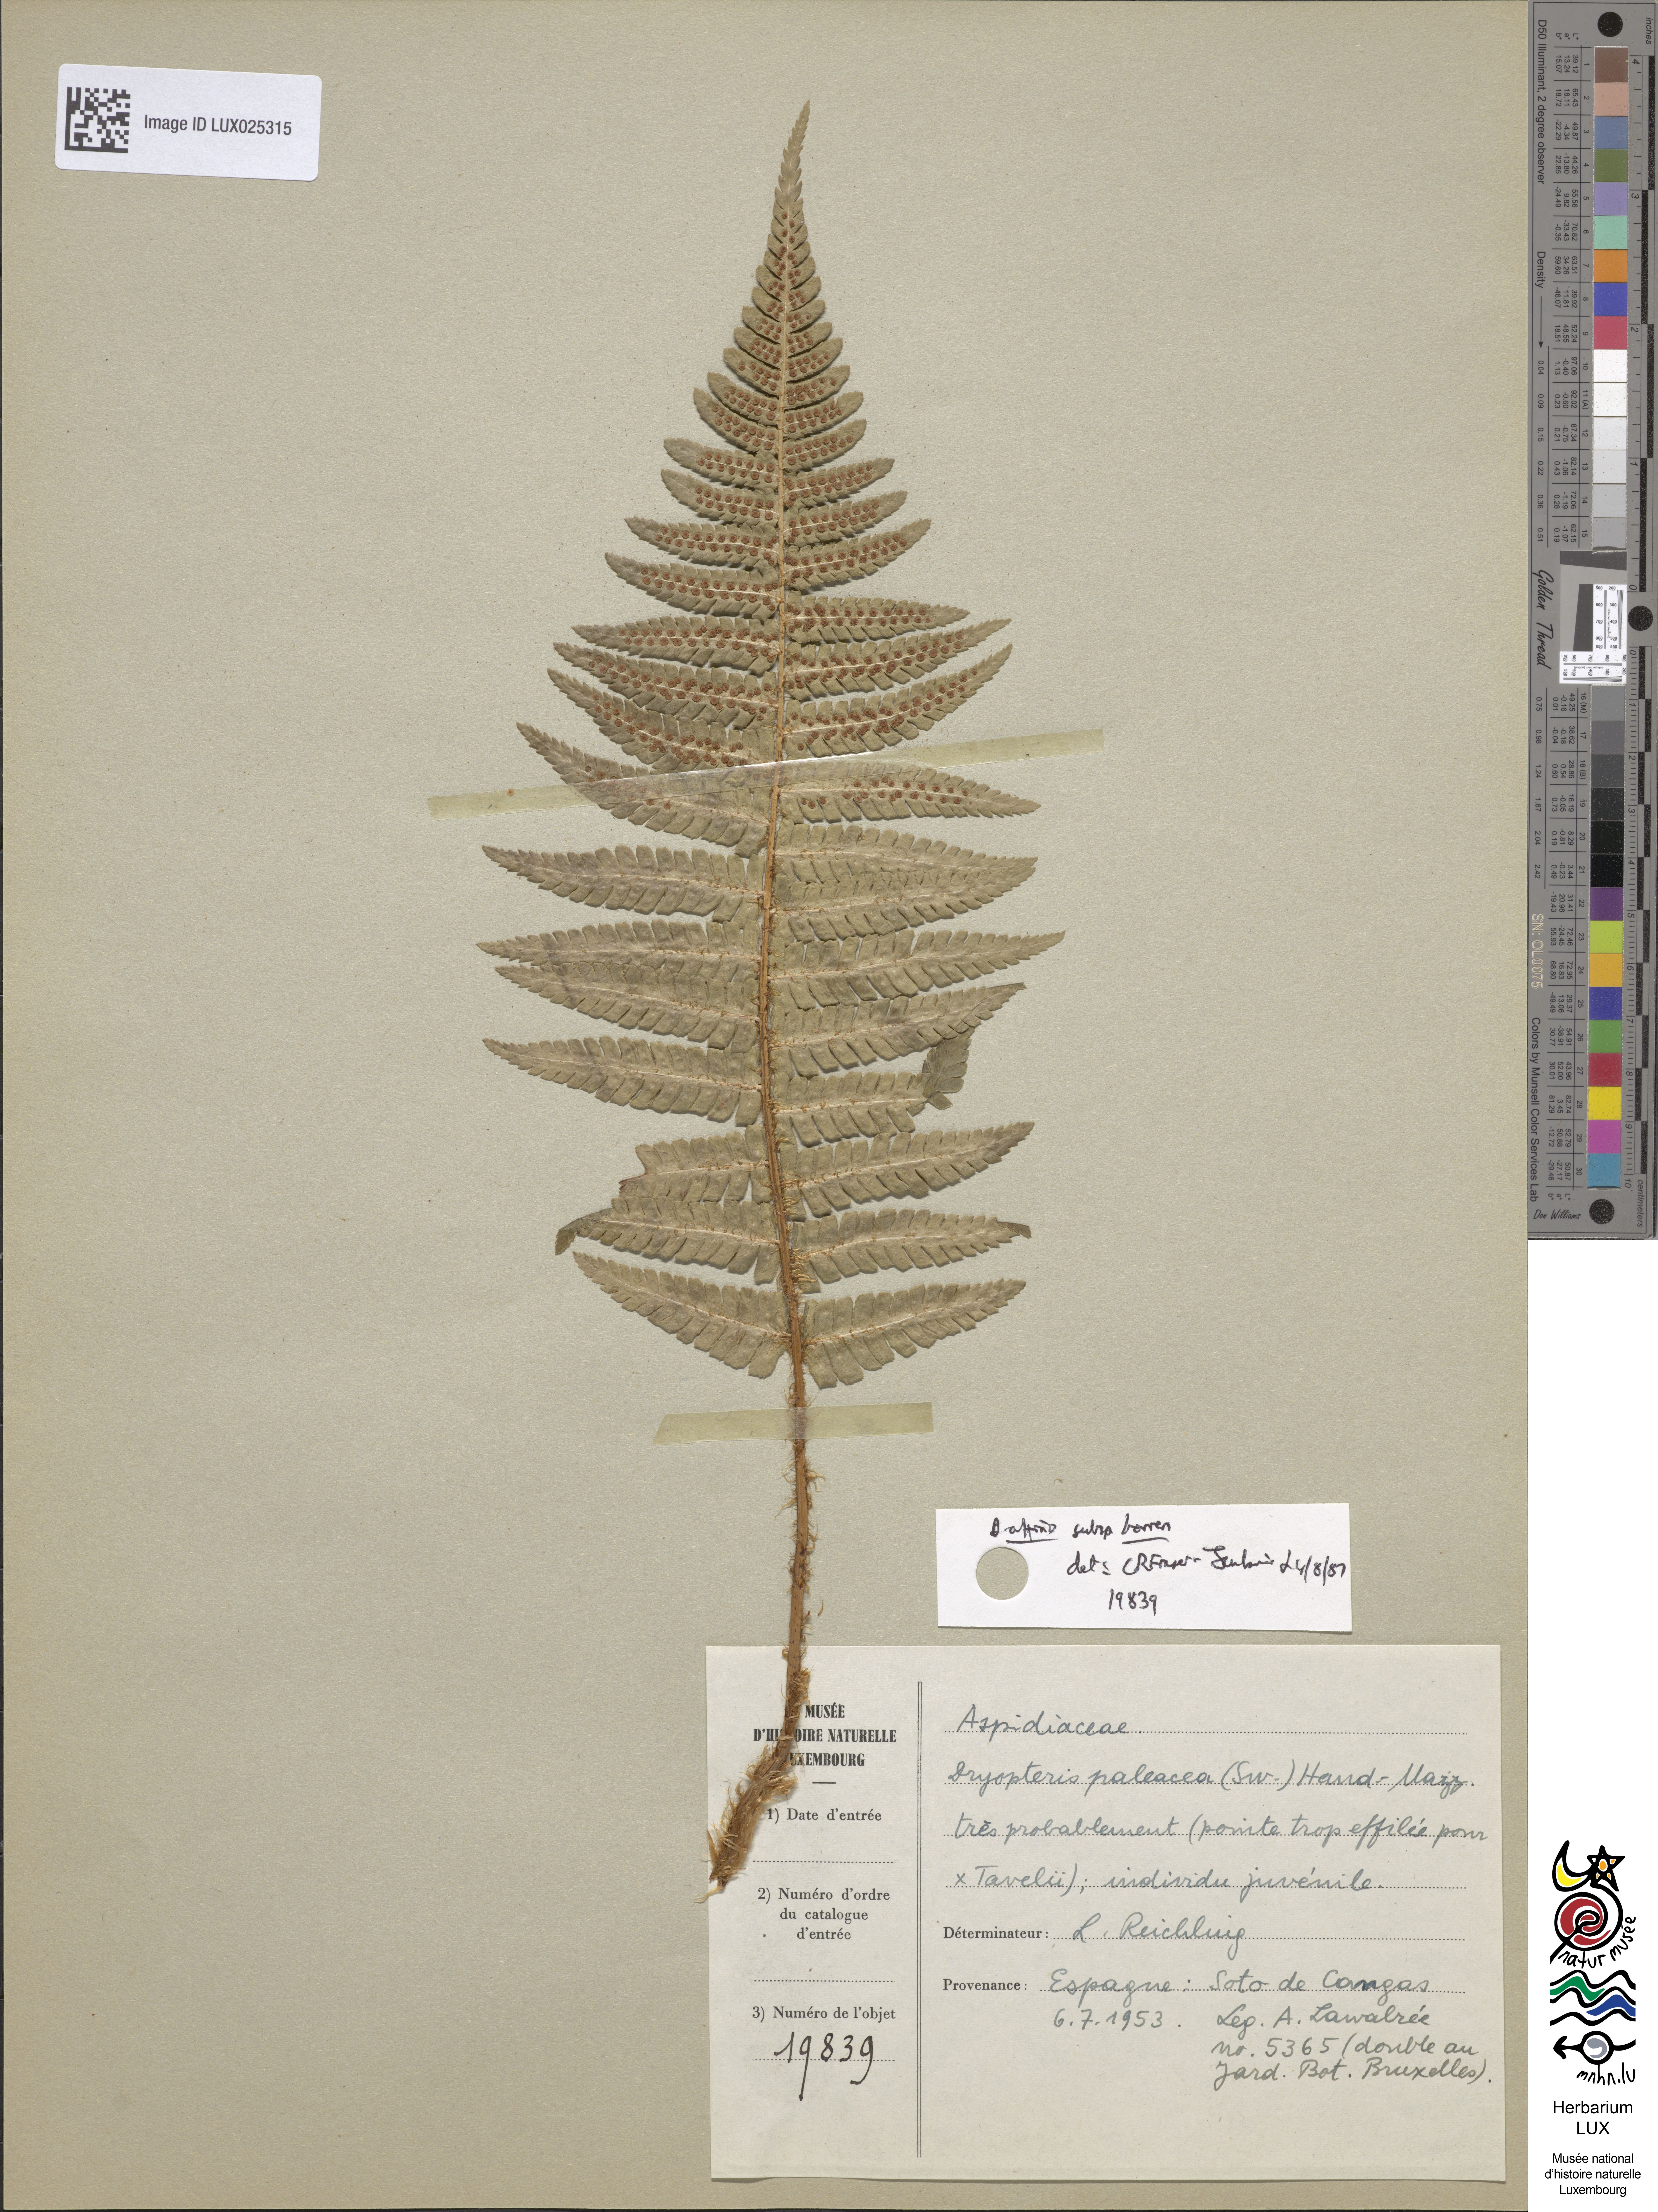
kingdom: Plantae
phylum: Tracheophyta
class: Polypodiopsida
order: Polypodiales
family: Dryopteridaceae
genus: Dryopteris
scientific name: Dryopteris borreri
